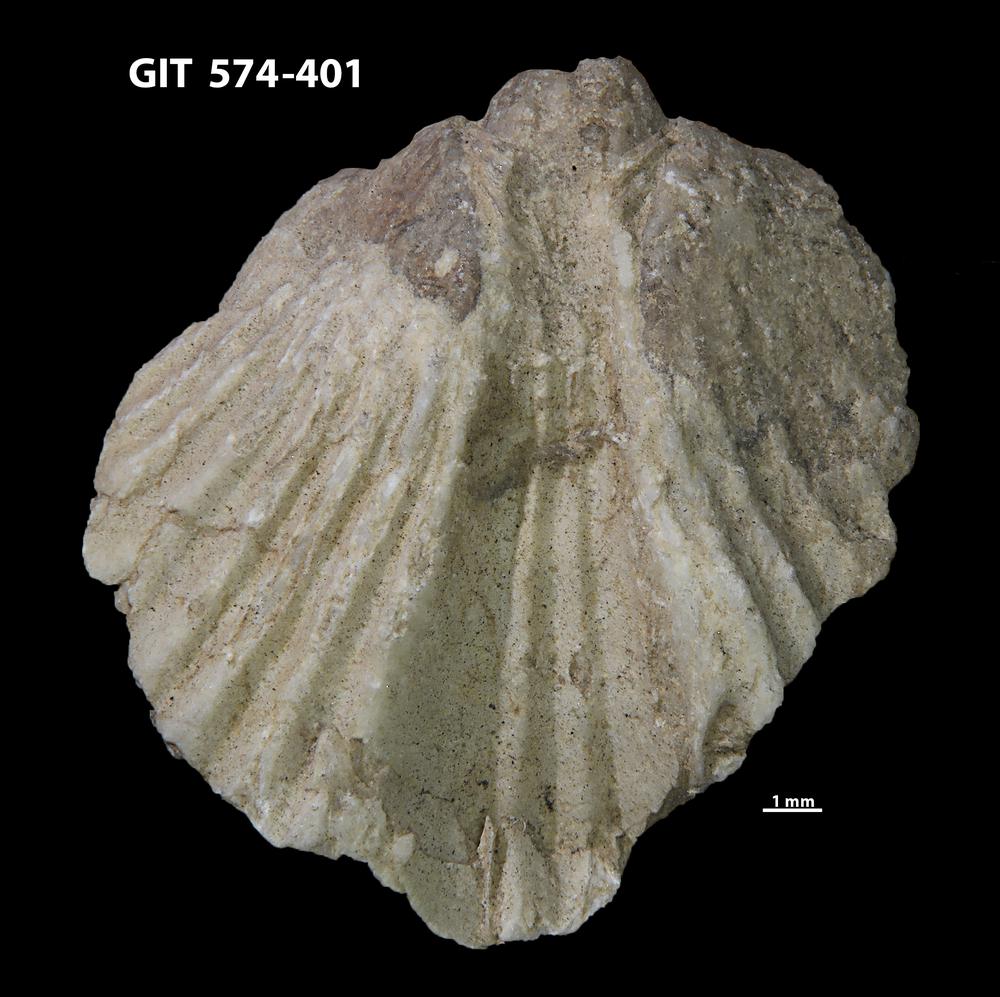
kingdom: Animalia
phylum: Brachiopoda
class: Rhynchonellata
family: Atrypinidae
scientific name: Atrypinidae
